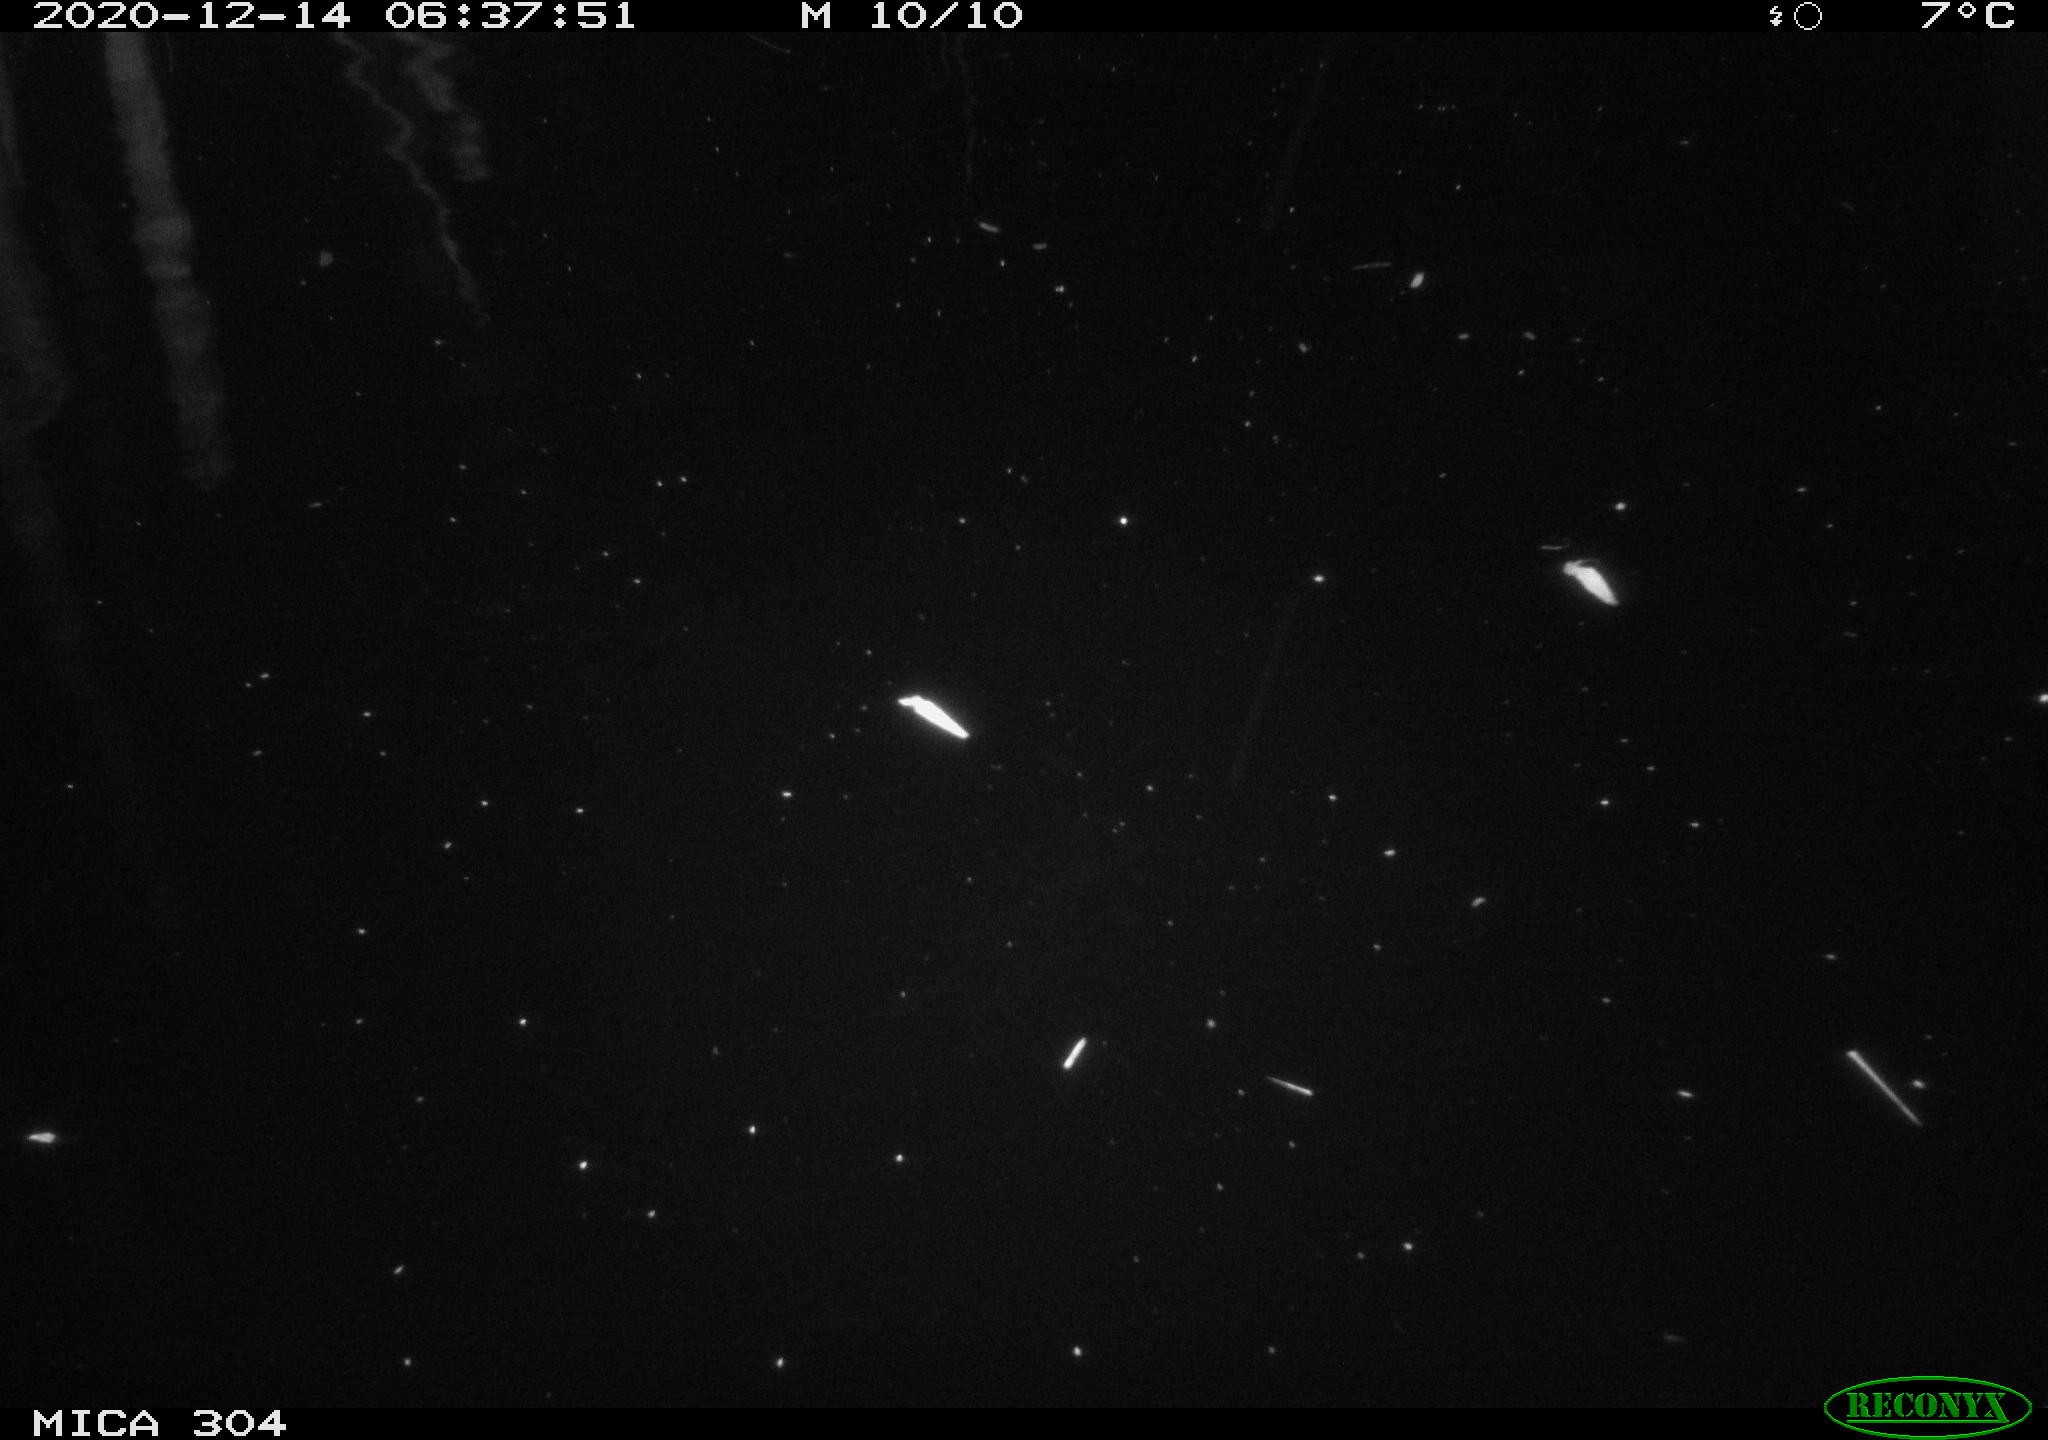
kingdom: Animalia
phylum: Chordata
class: Mammalia
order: Rodentia
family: Cricetidae
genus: Ondatra
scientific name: Ondatra zibethicus
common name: Muskrat
